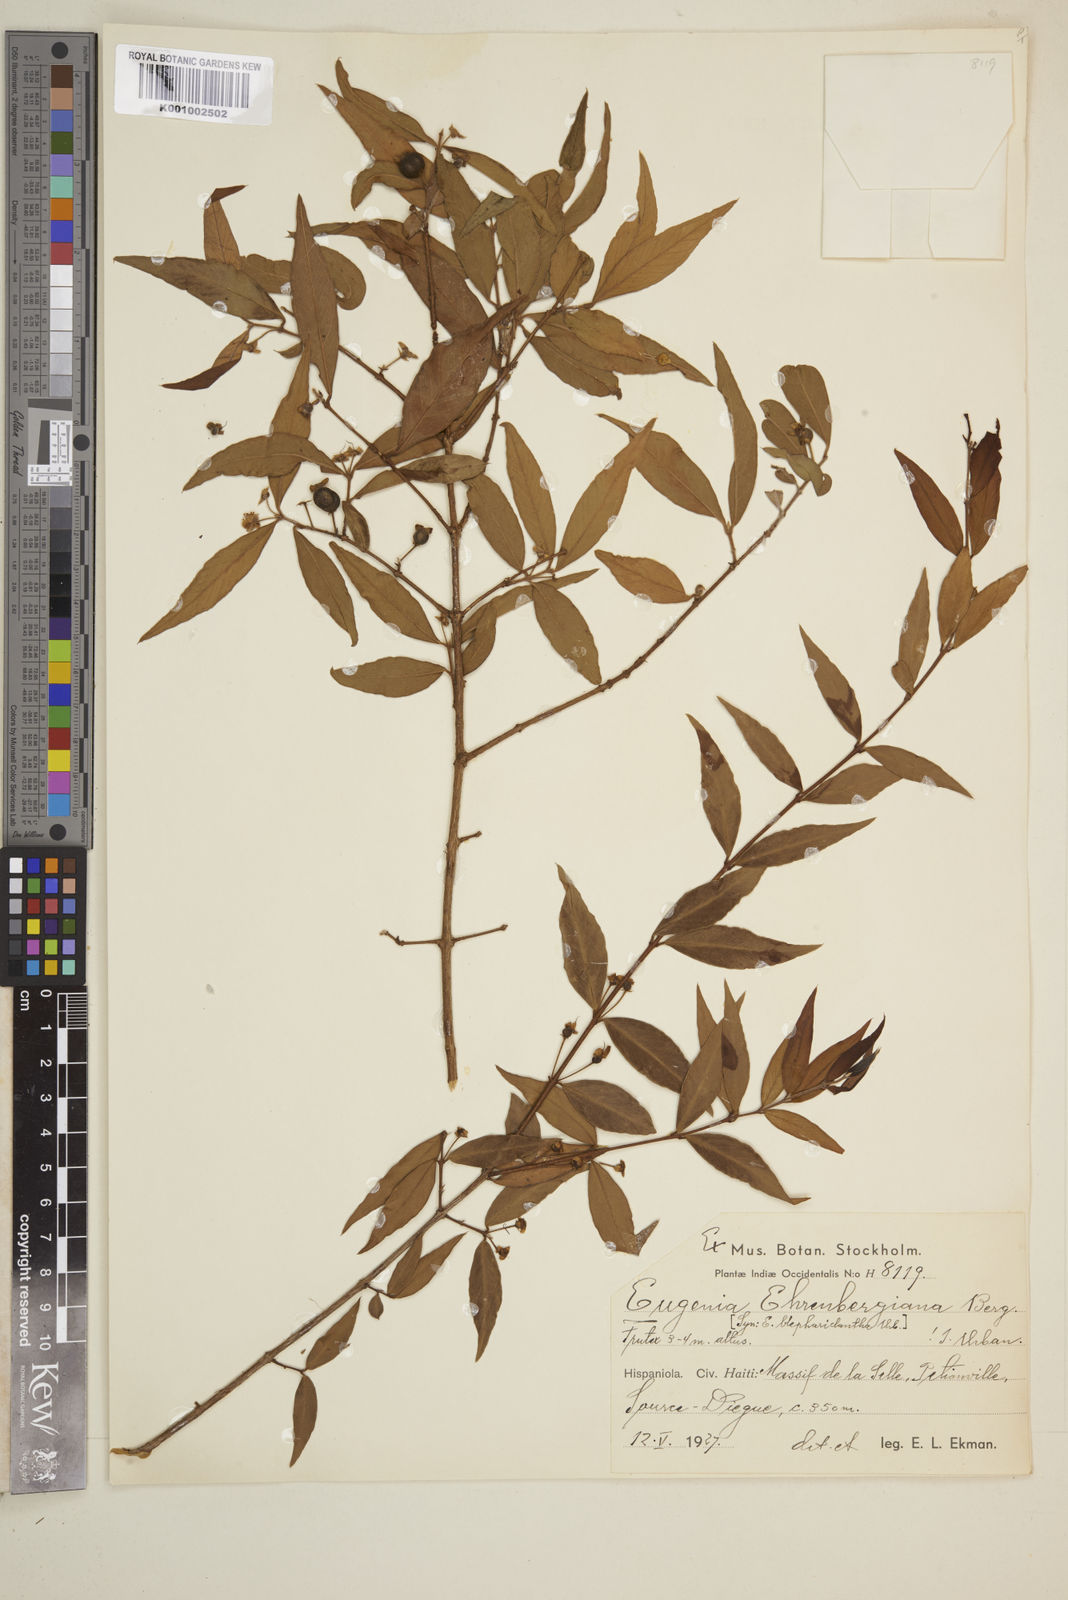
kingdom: Plantae
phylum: Tracheophyta
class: Magnoliopsida
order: Myrtales
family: Myrtaceae
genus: Eugenia
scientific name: Eugenia ehrenbergiana
